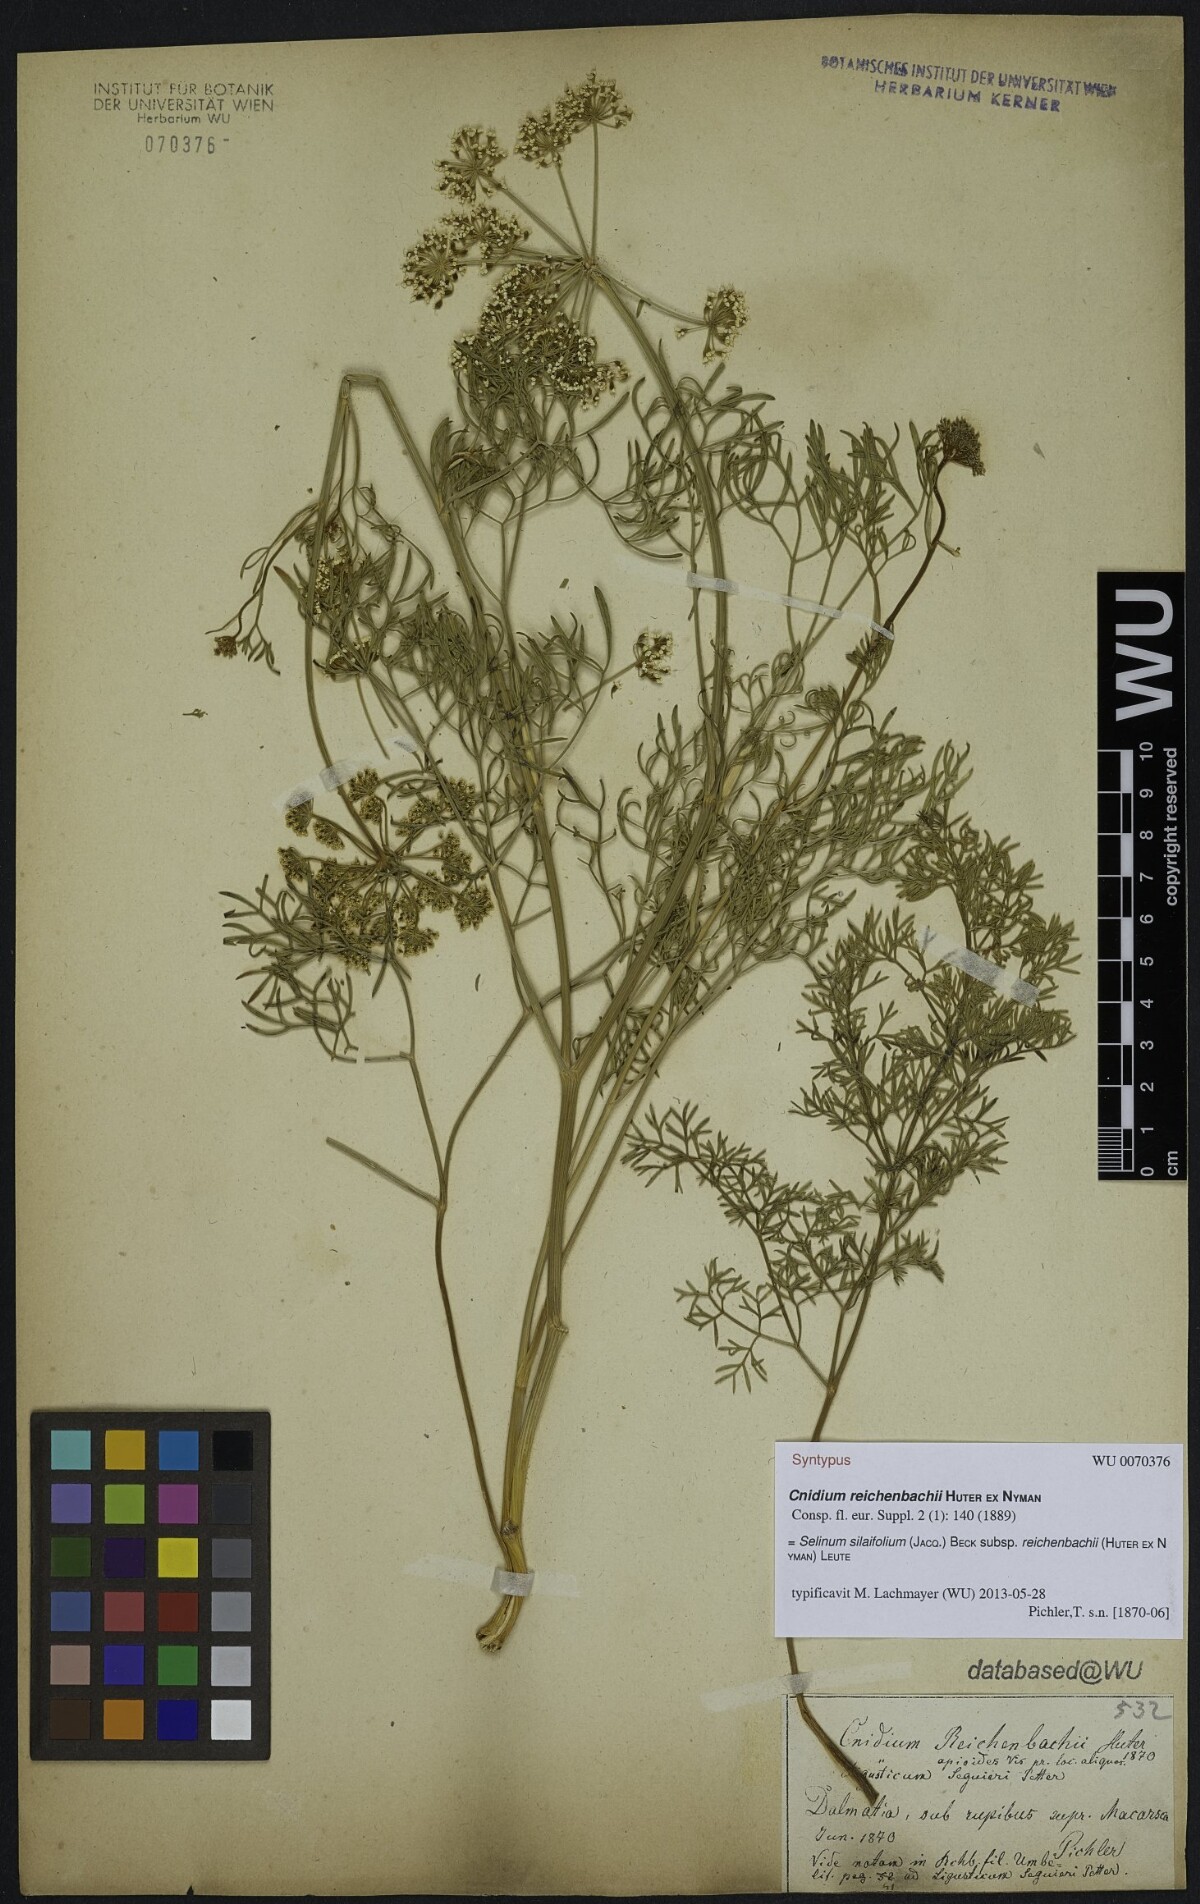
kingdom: Plantae
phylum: Tracheophyta
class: Magnoliopsida
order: Apiales
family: Apiaceae
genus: Cnidium
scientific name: Cnidium reichenbachii
